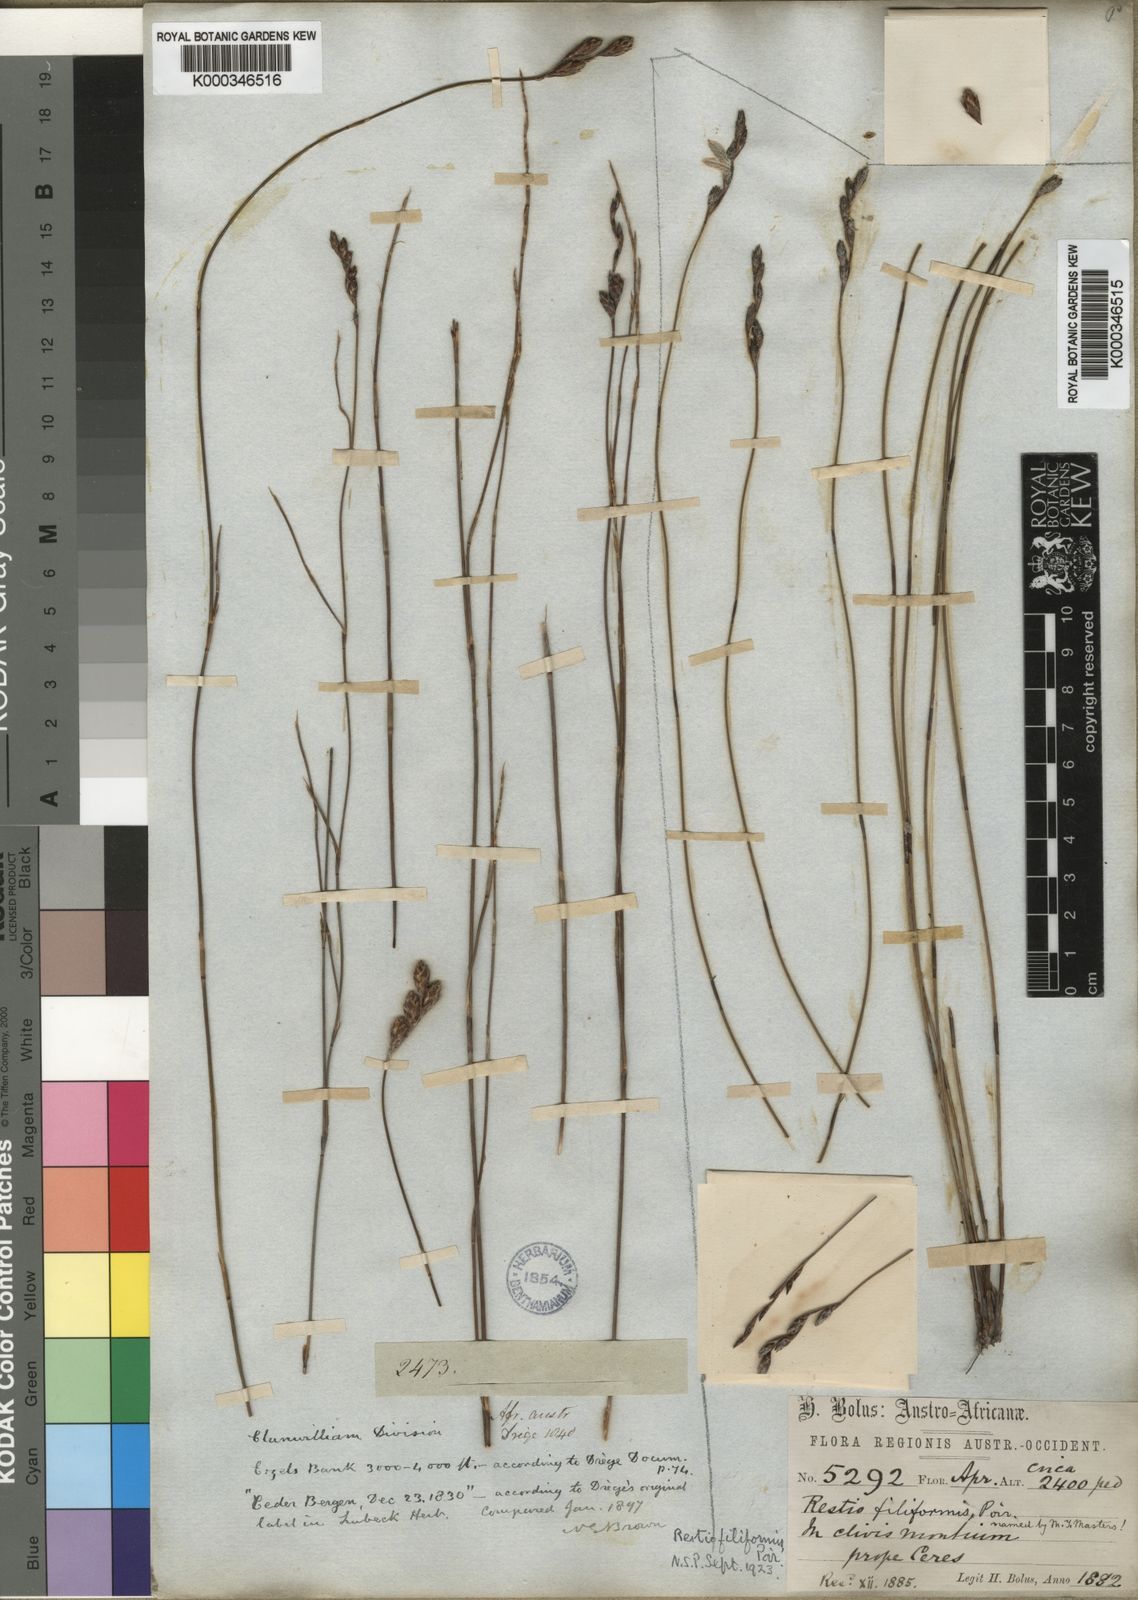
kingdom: Plantae
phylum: Tracheophyta
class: Liliopsida
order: Poales
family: Restionaceae
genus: Restio
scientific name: Restio filiformis
